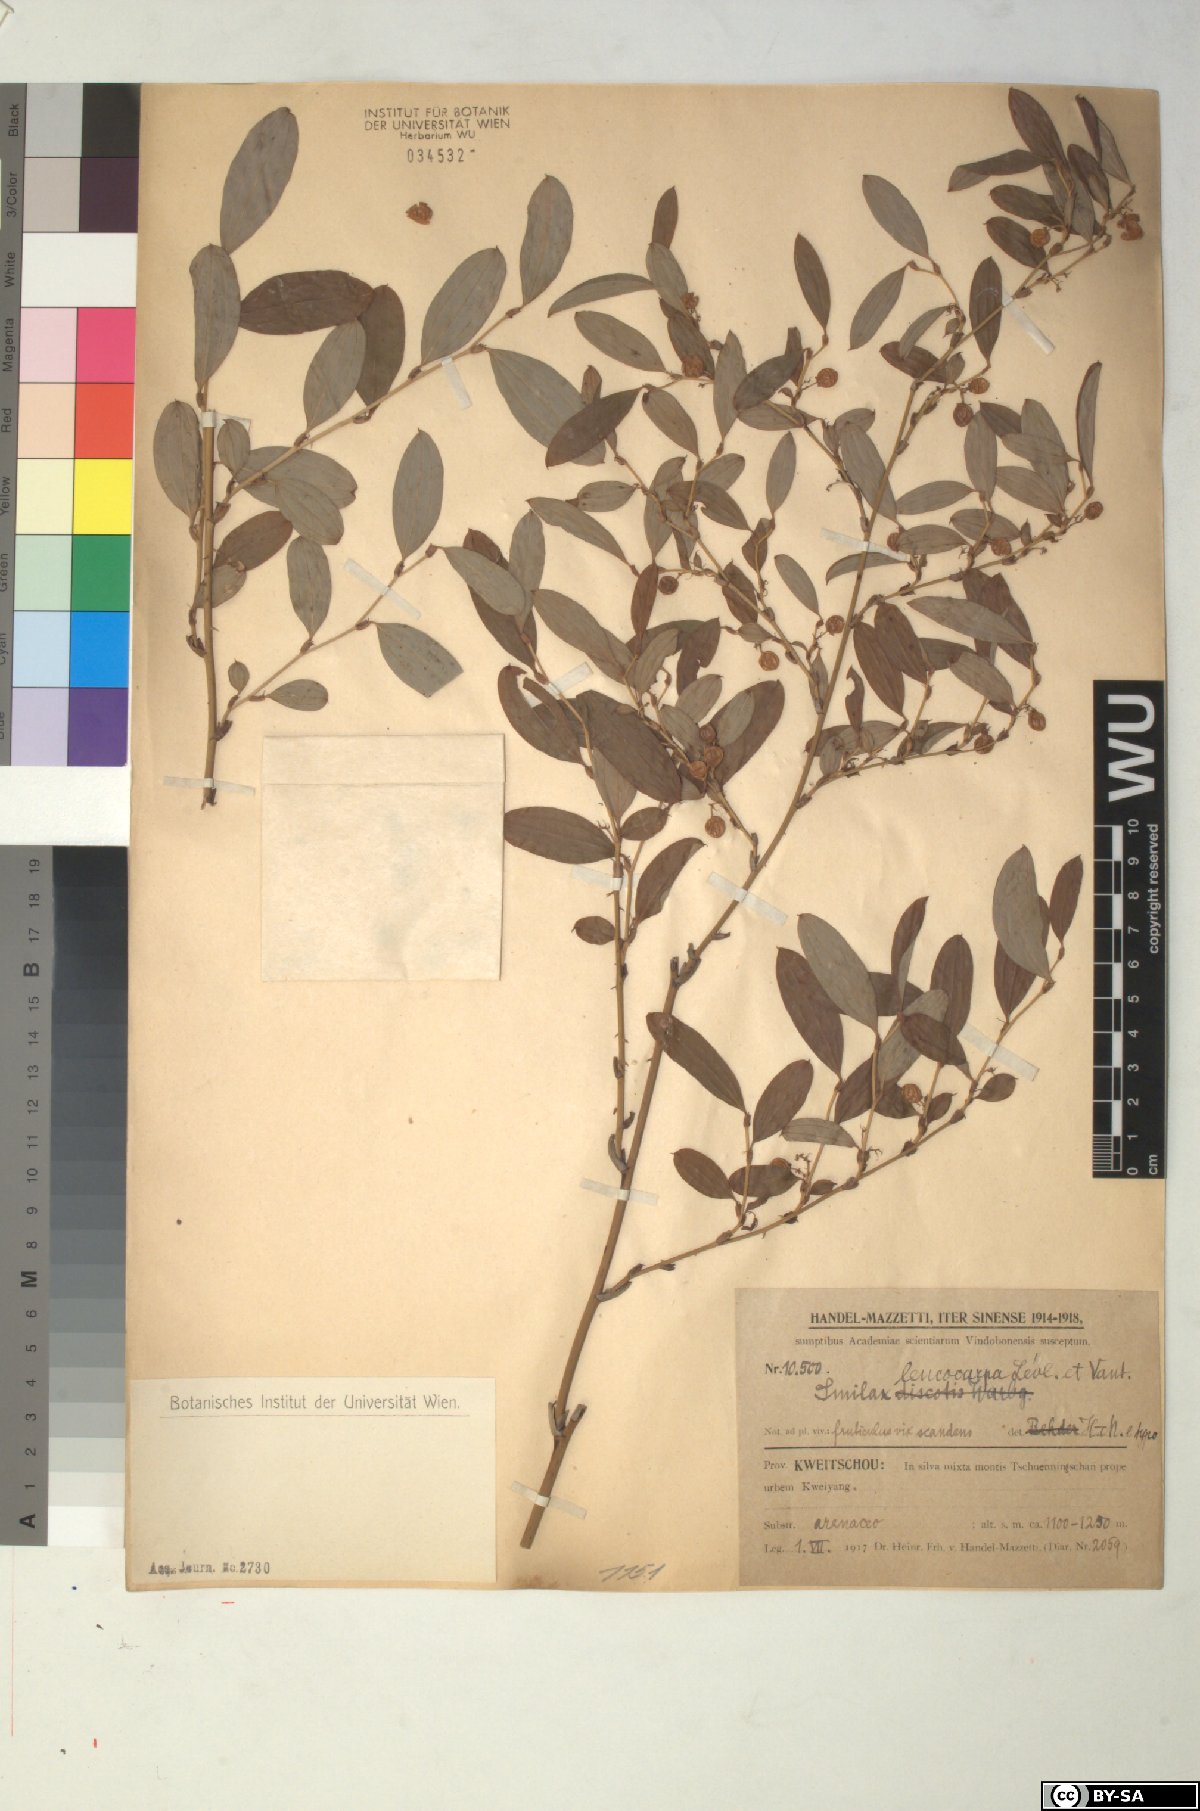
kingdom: Plantae
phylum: Tracheophyta
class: Liliopsida
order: Liliales
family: Smilacaceae
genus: Smilax
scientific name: Smilax trinervula
